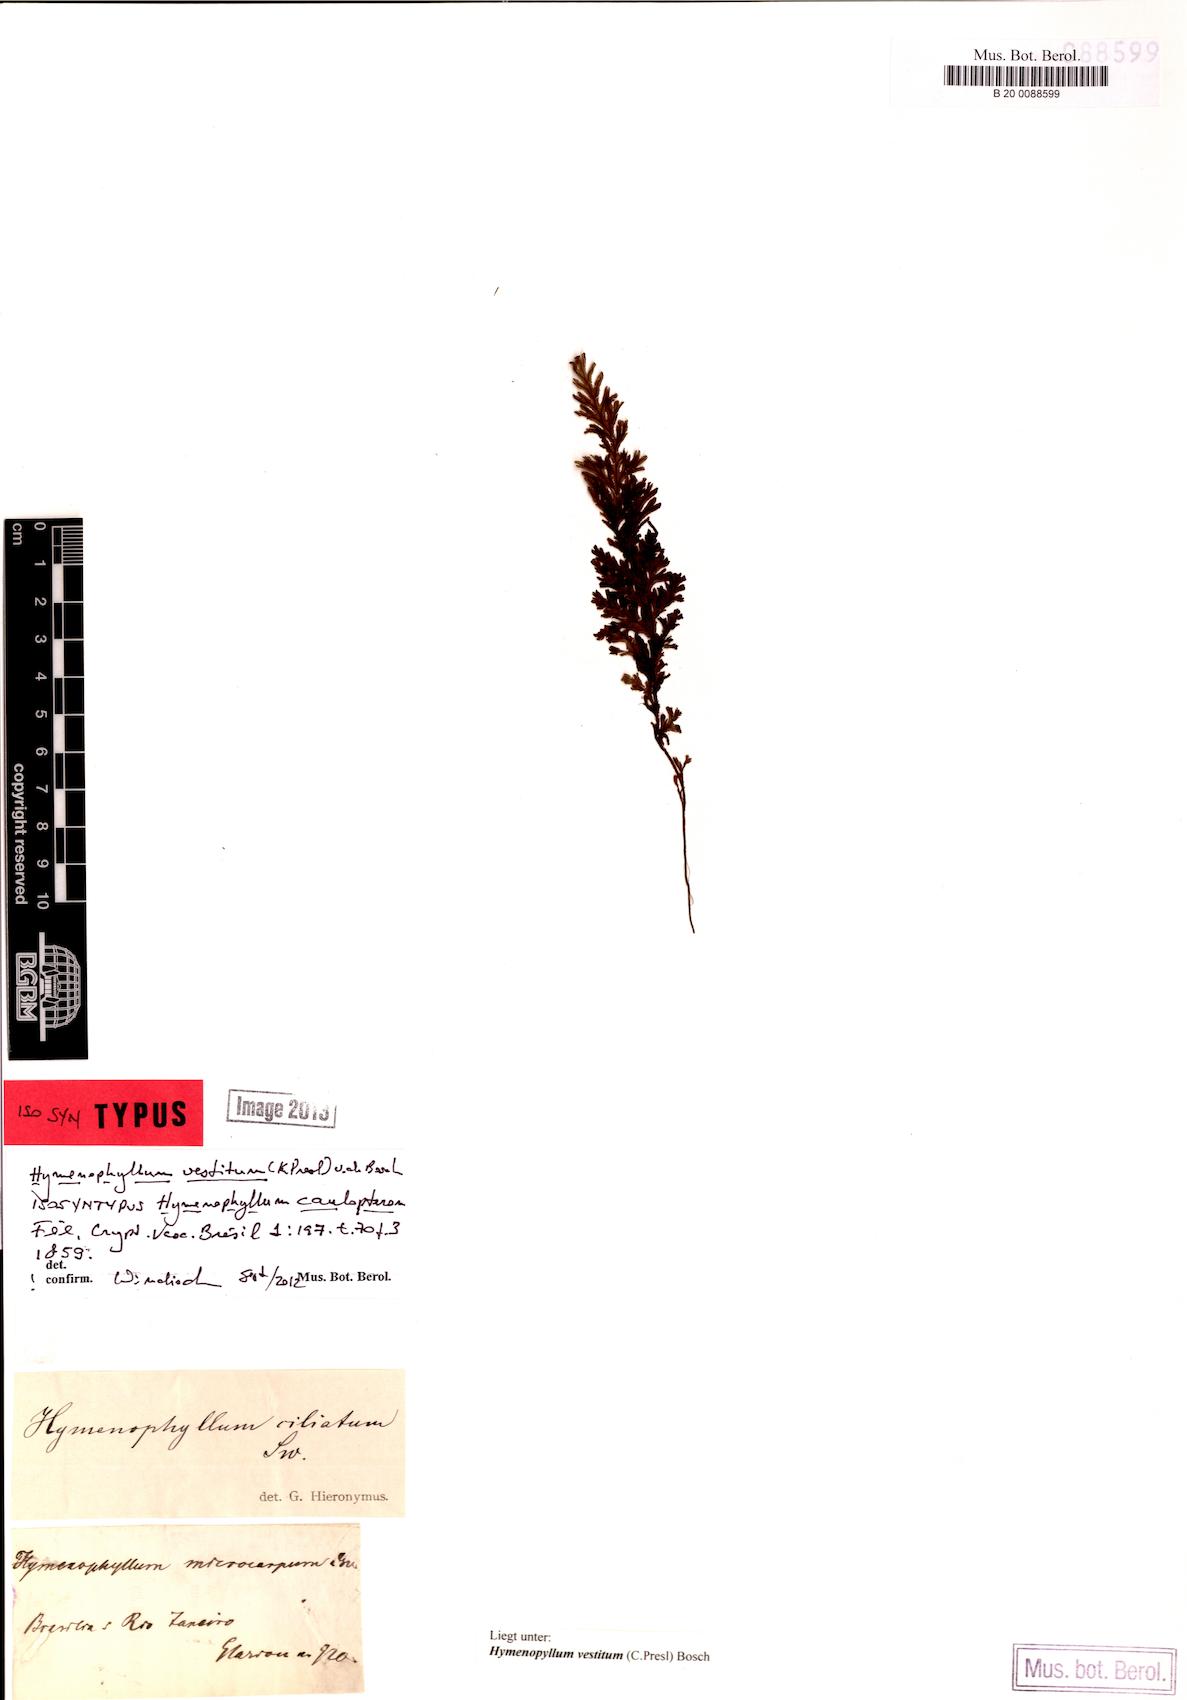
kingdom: Plantae
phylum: Tracheophyta
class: Polypodiopsida
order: Hymenophyllales
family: Hymenophyllaceae
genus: Hymenophyllum
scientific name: Hymenophyllum vestitum
